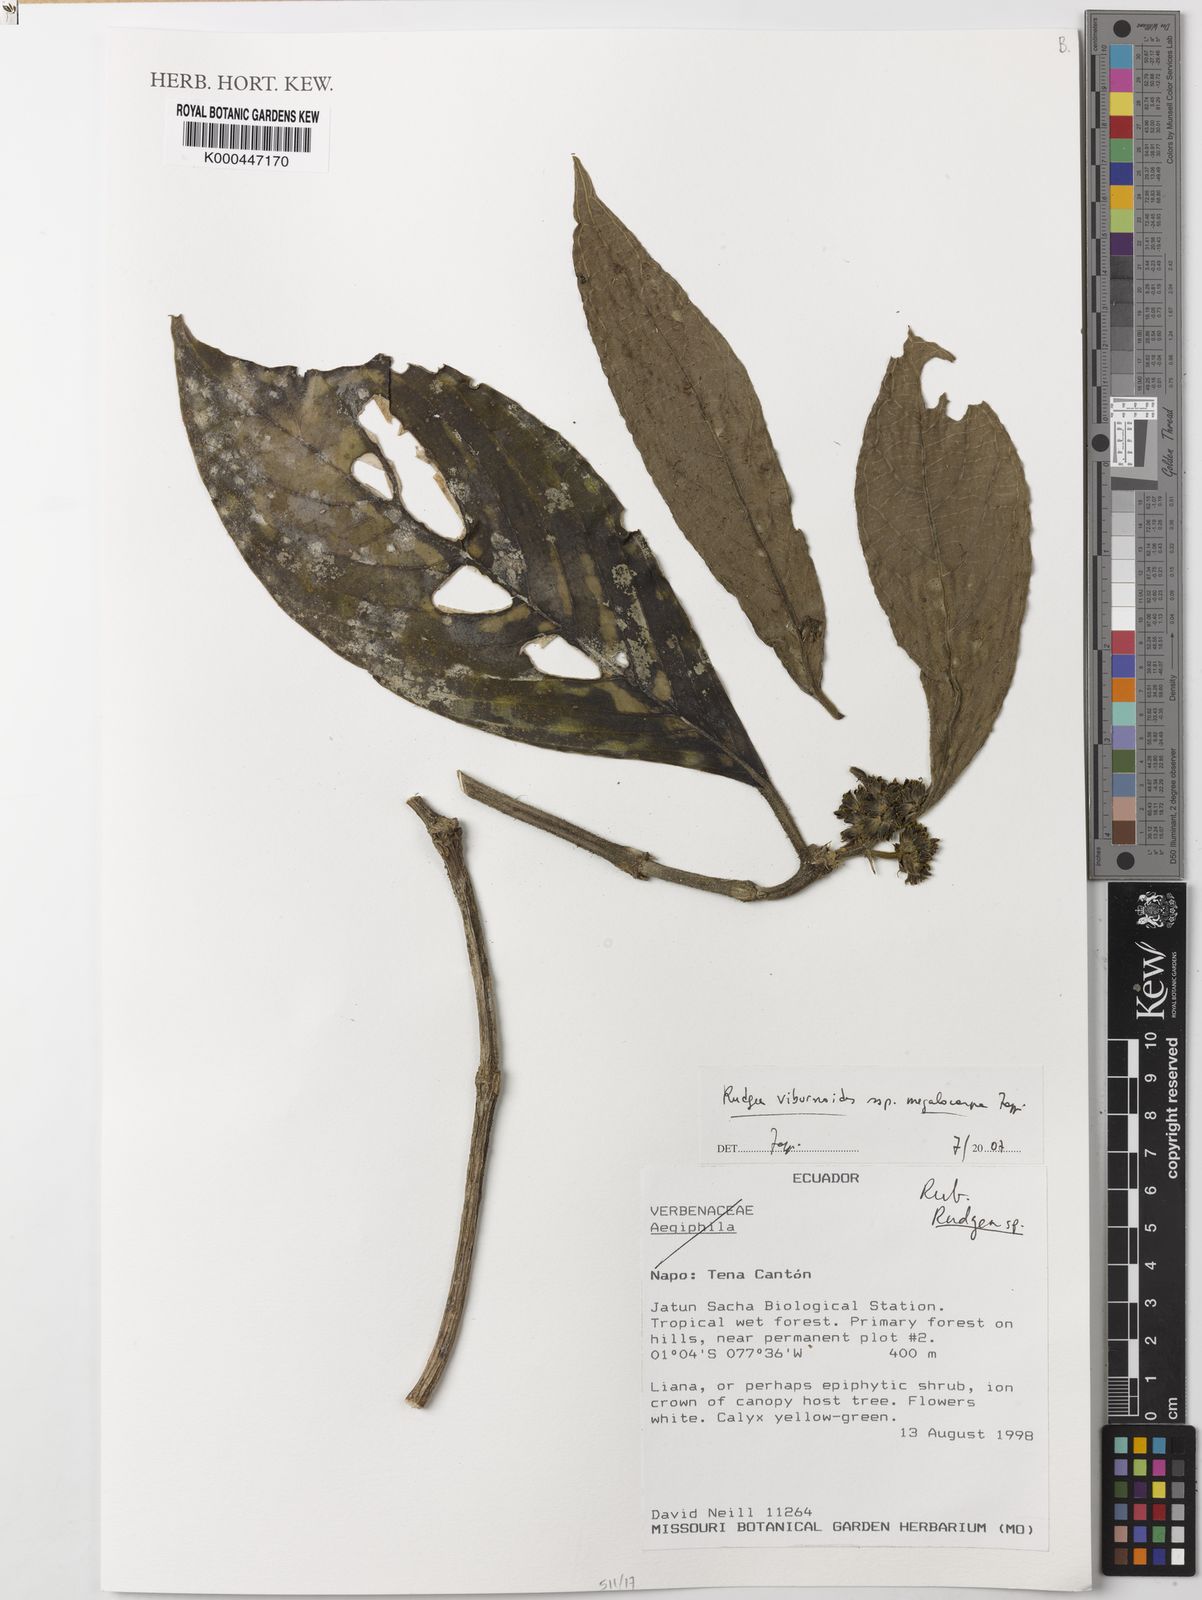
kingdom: Plantae
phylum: Tracheophyta
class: Magnoliopsida
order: Gentianales
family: Rubiaceae
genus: Rudgea
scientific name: Rudgea viburnoides
